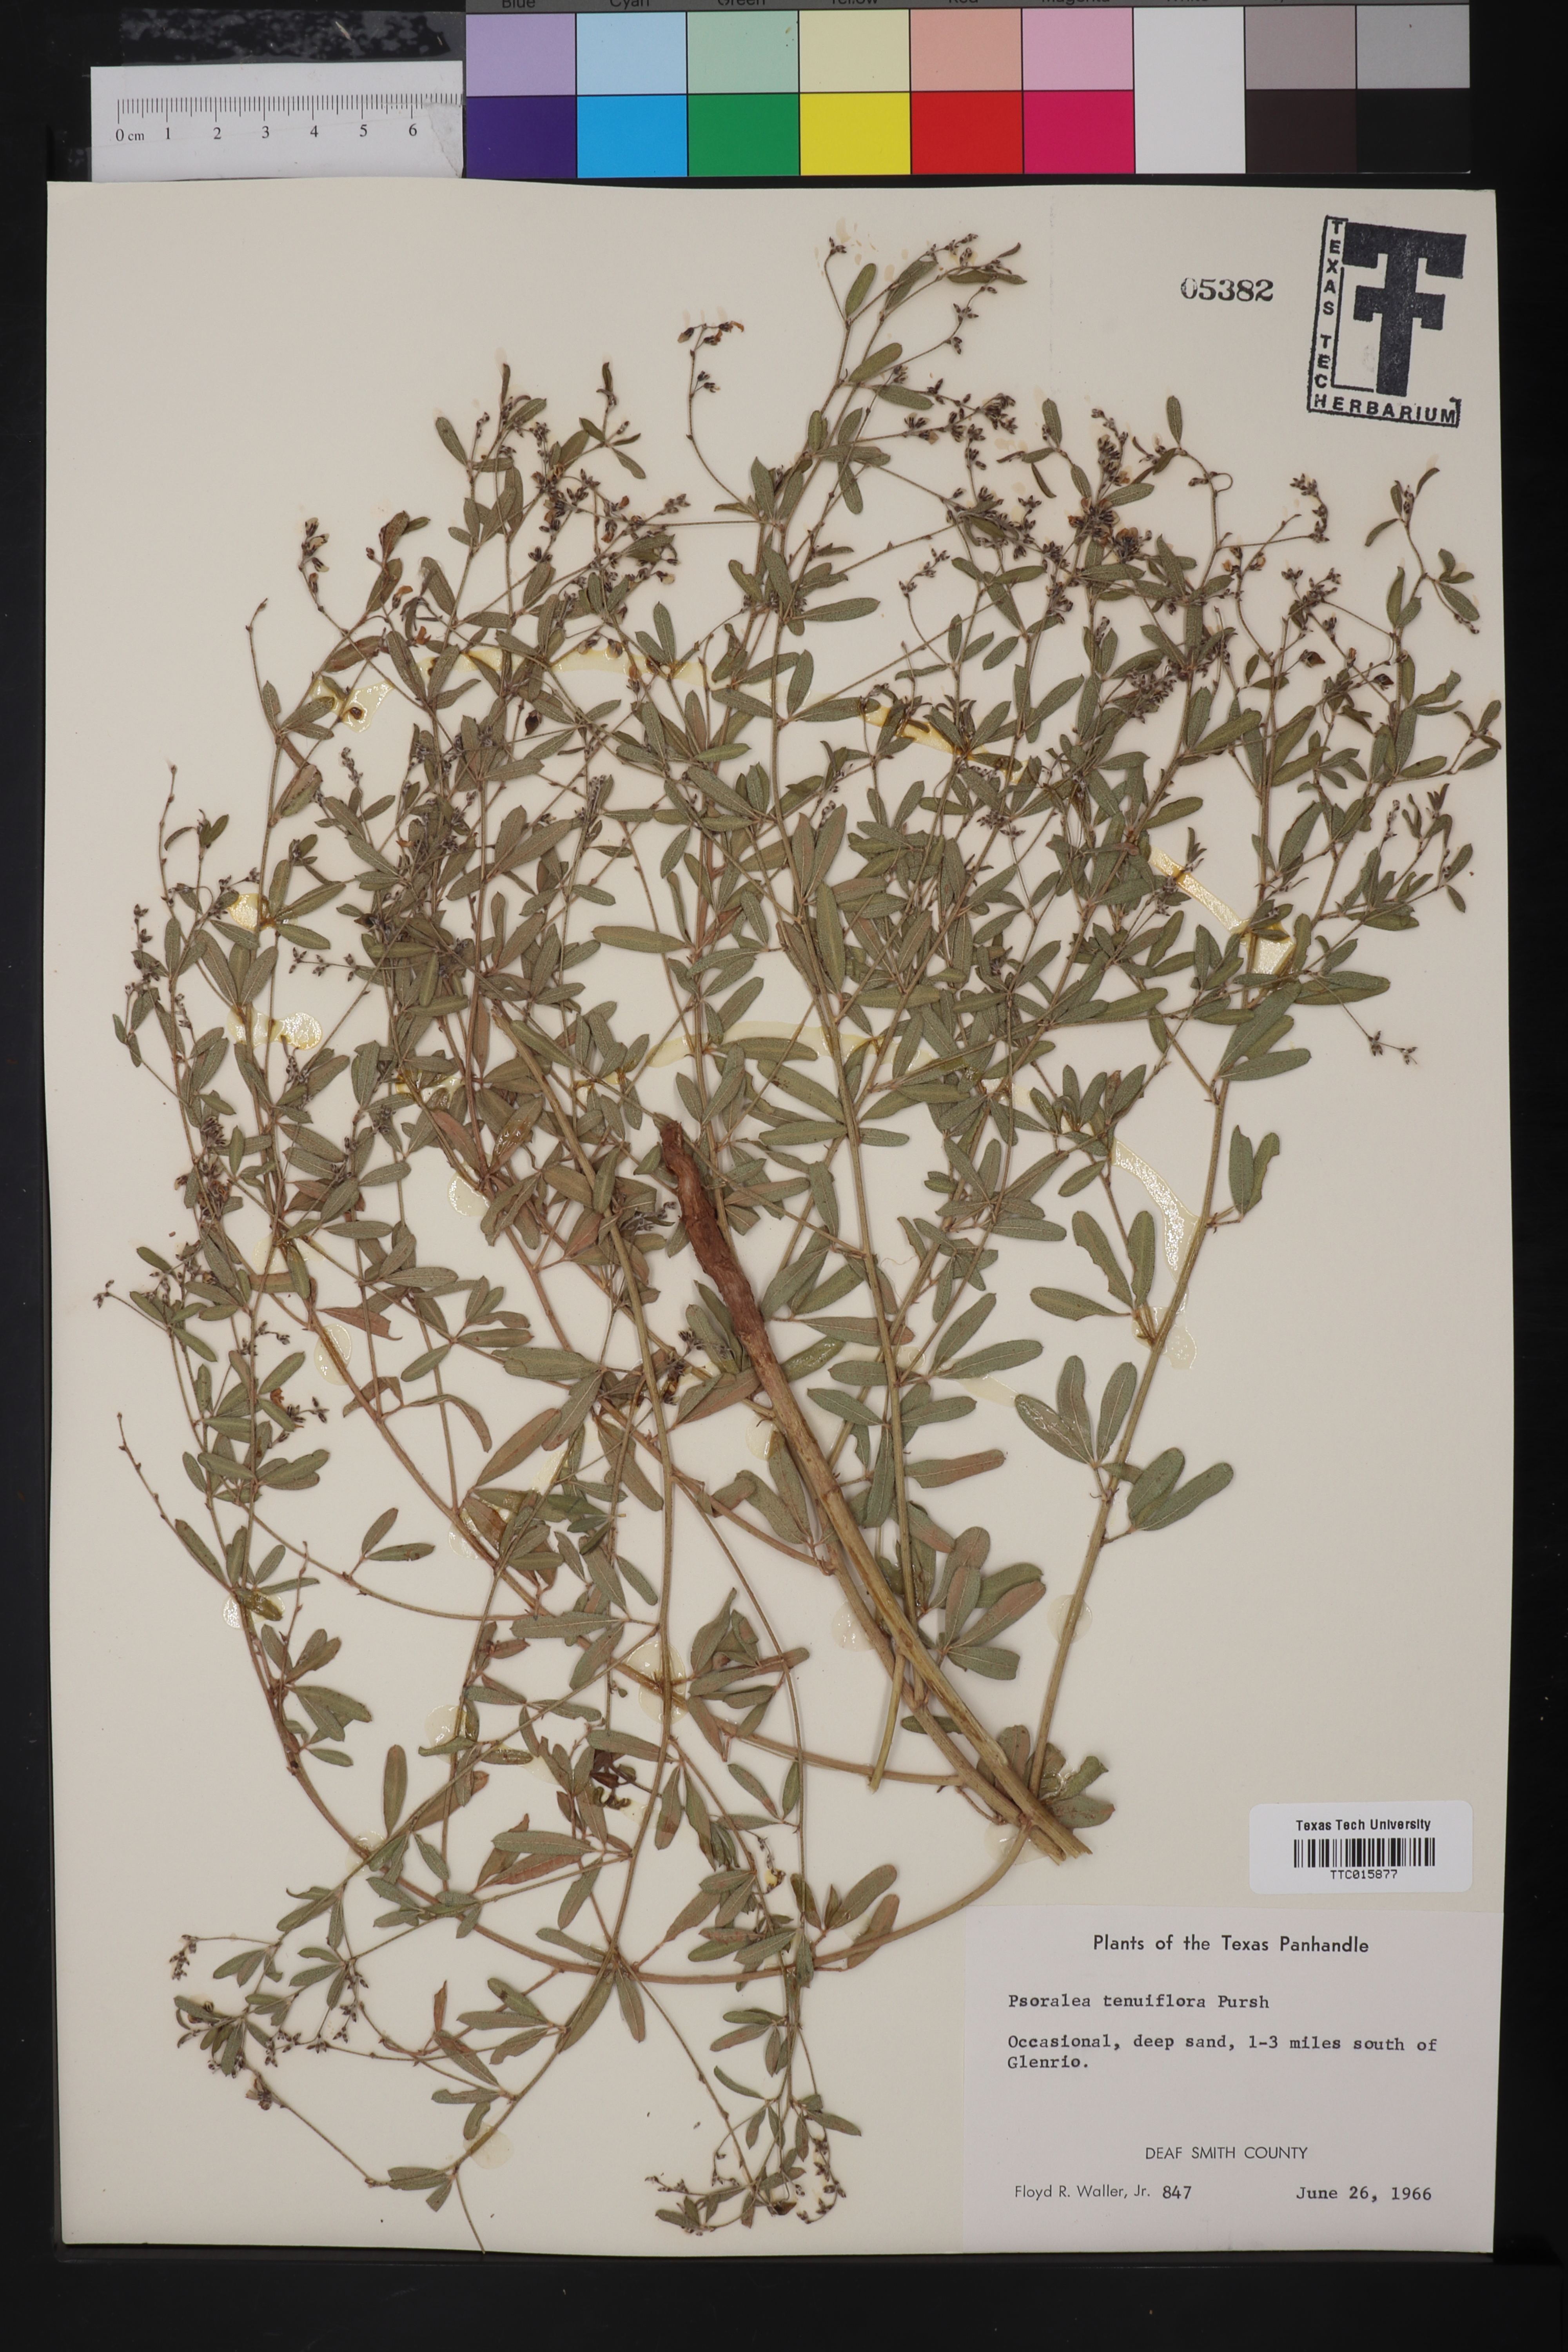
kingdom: Plantae
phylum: Tracheophyta
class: Magnoliopsida
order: Fabales
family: Fabaceae
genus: Pediomelum
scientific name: Pediomelum tenuiflorum
